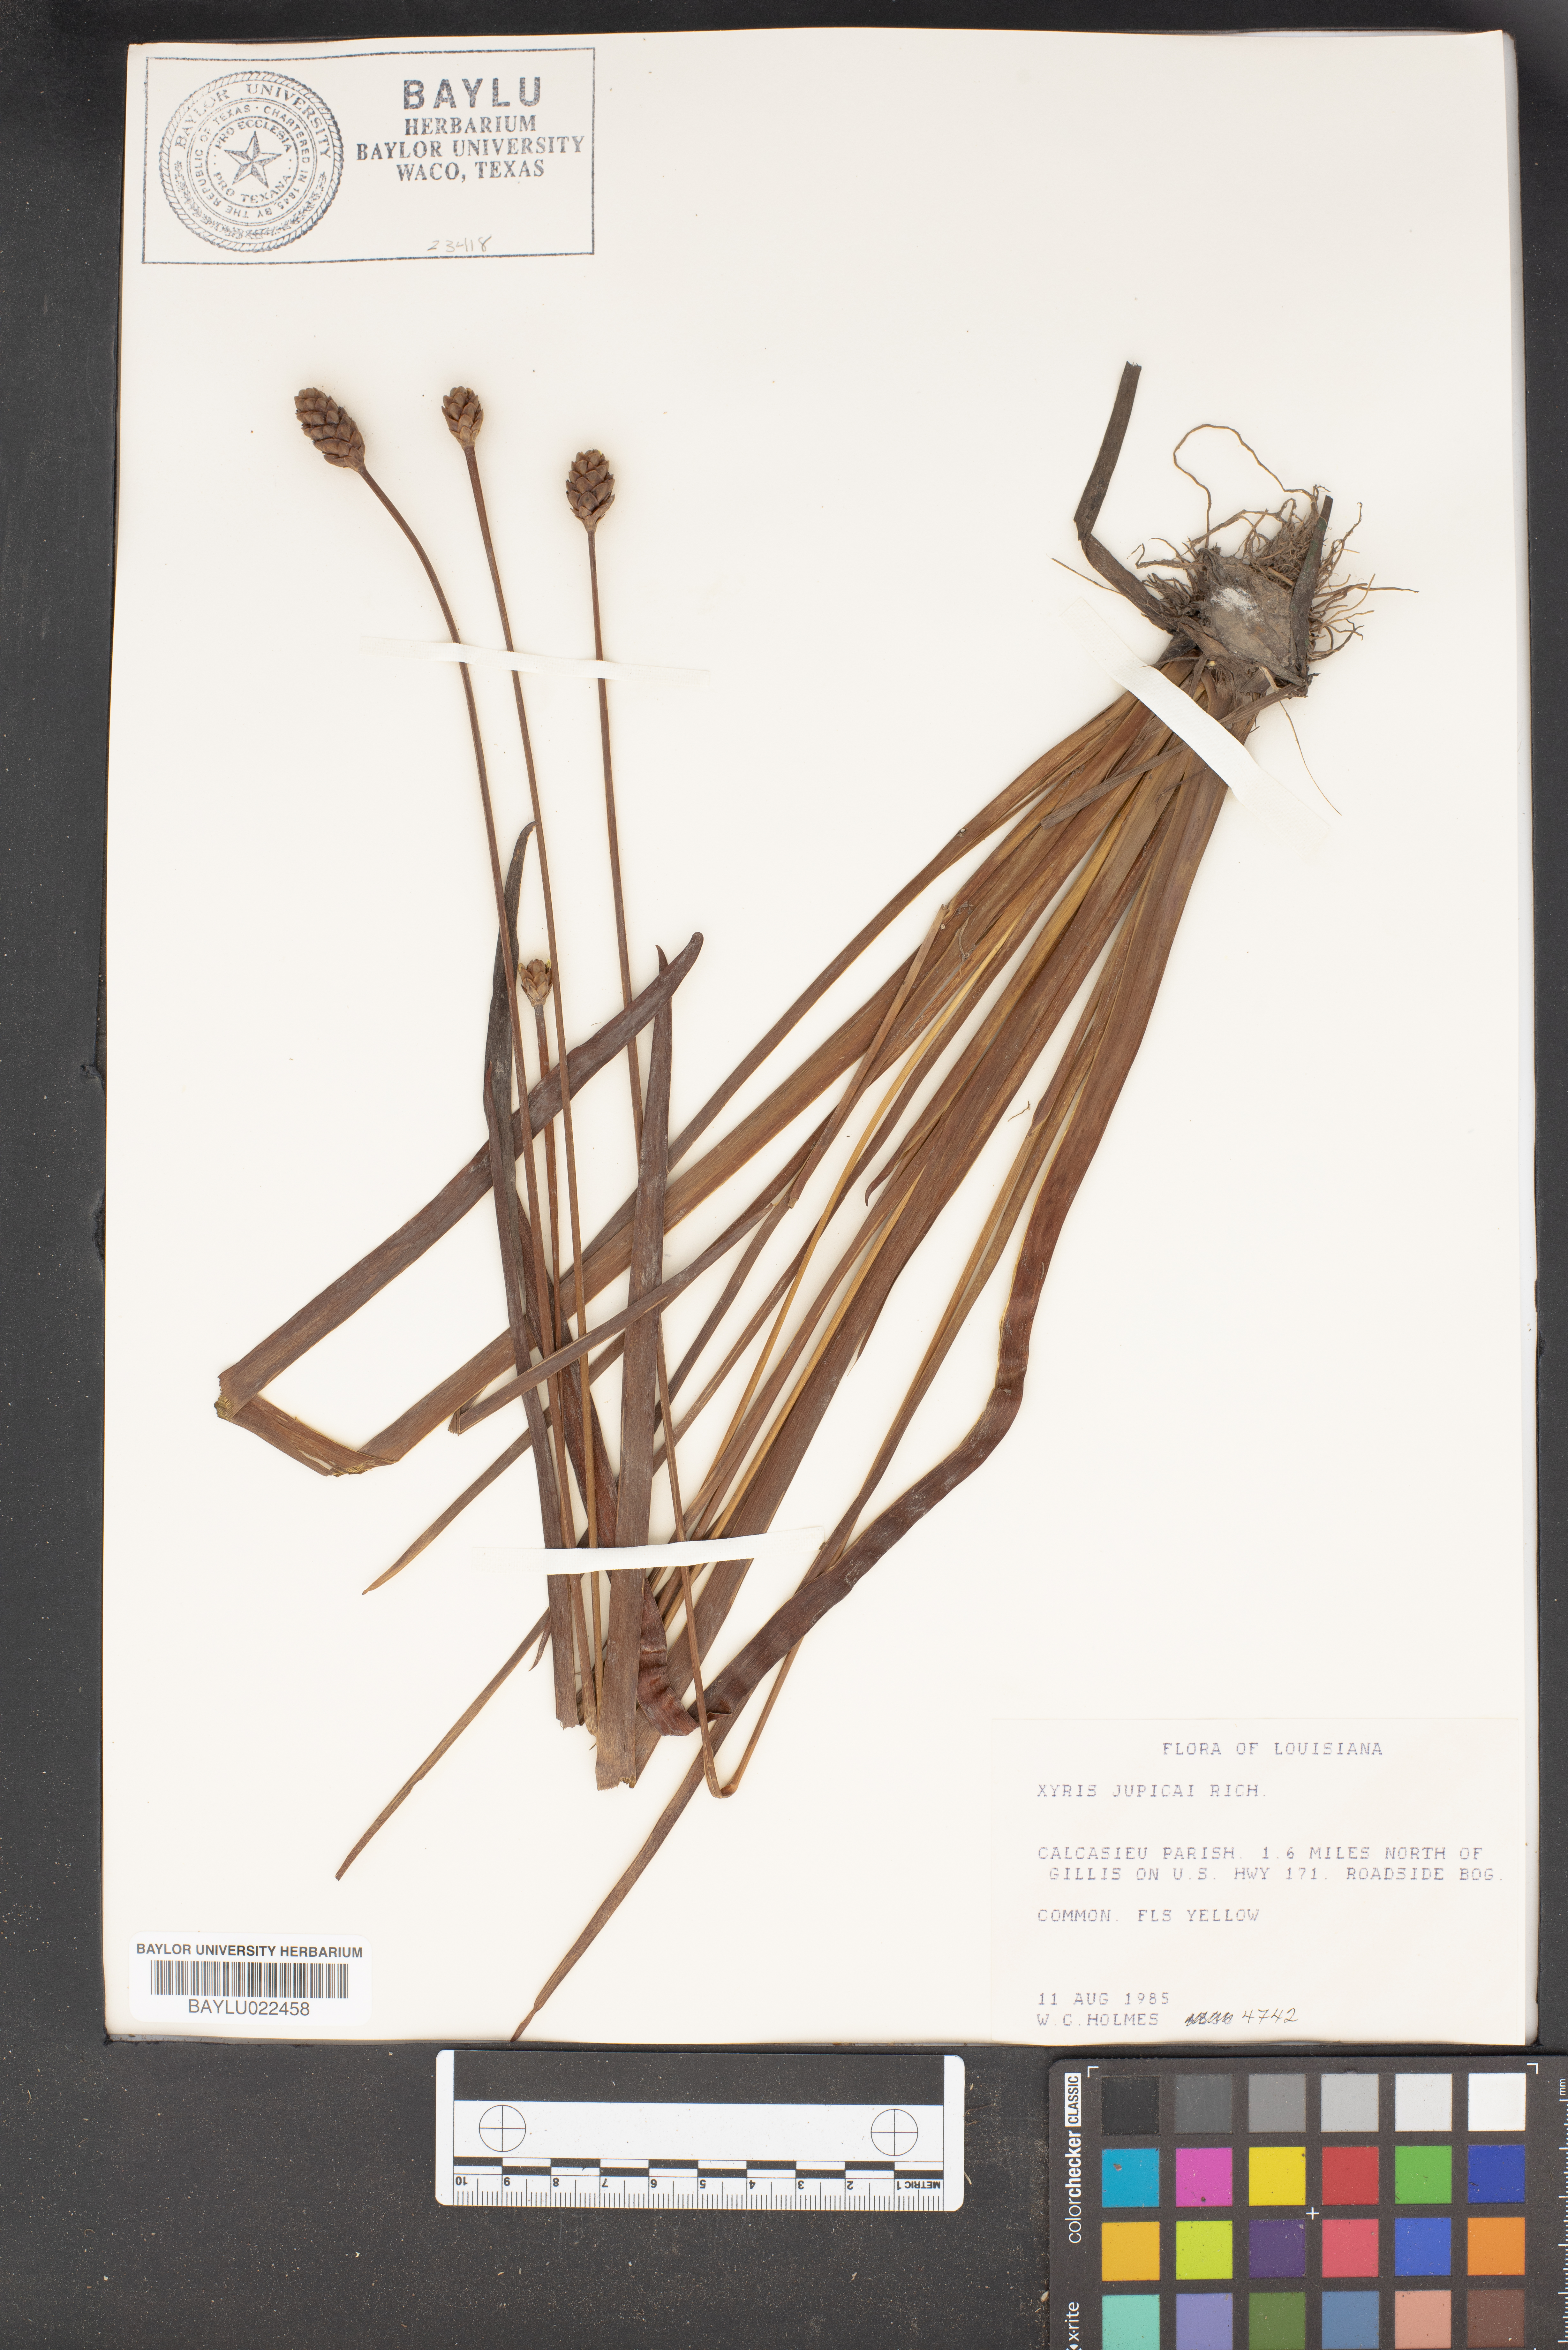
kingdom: Plantae
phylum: Tracheophyta
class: Liliopsida
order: Poales
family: Xyridaceae
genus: Xyris
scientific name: Xyris jupicai
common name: Richard's yelloweyed grass
